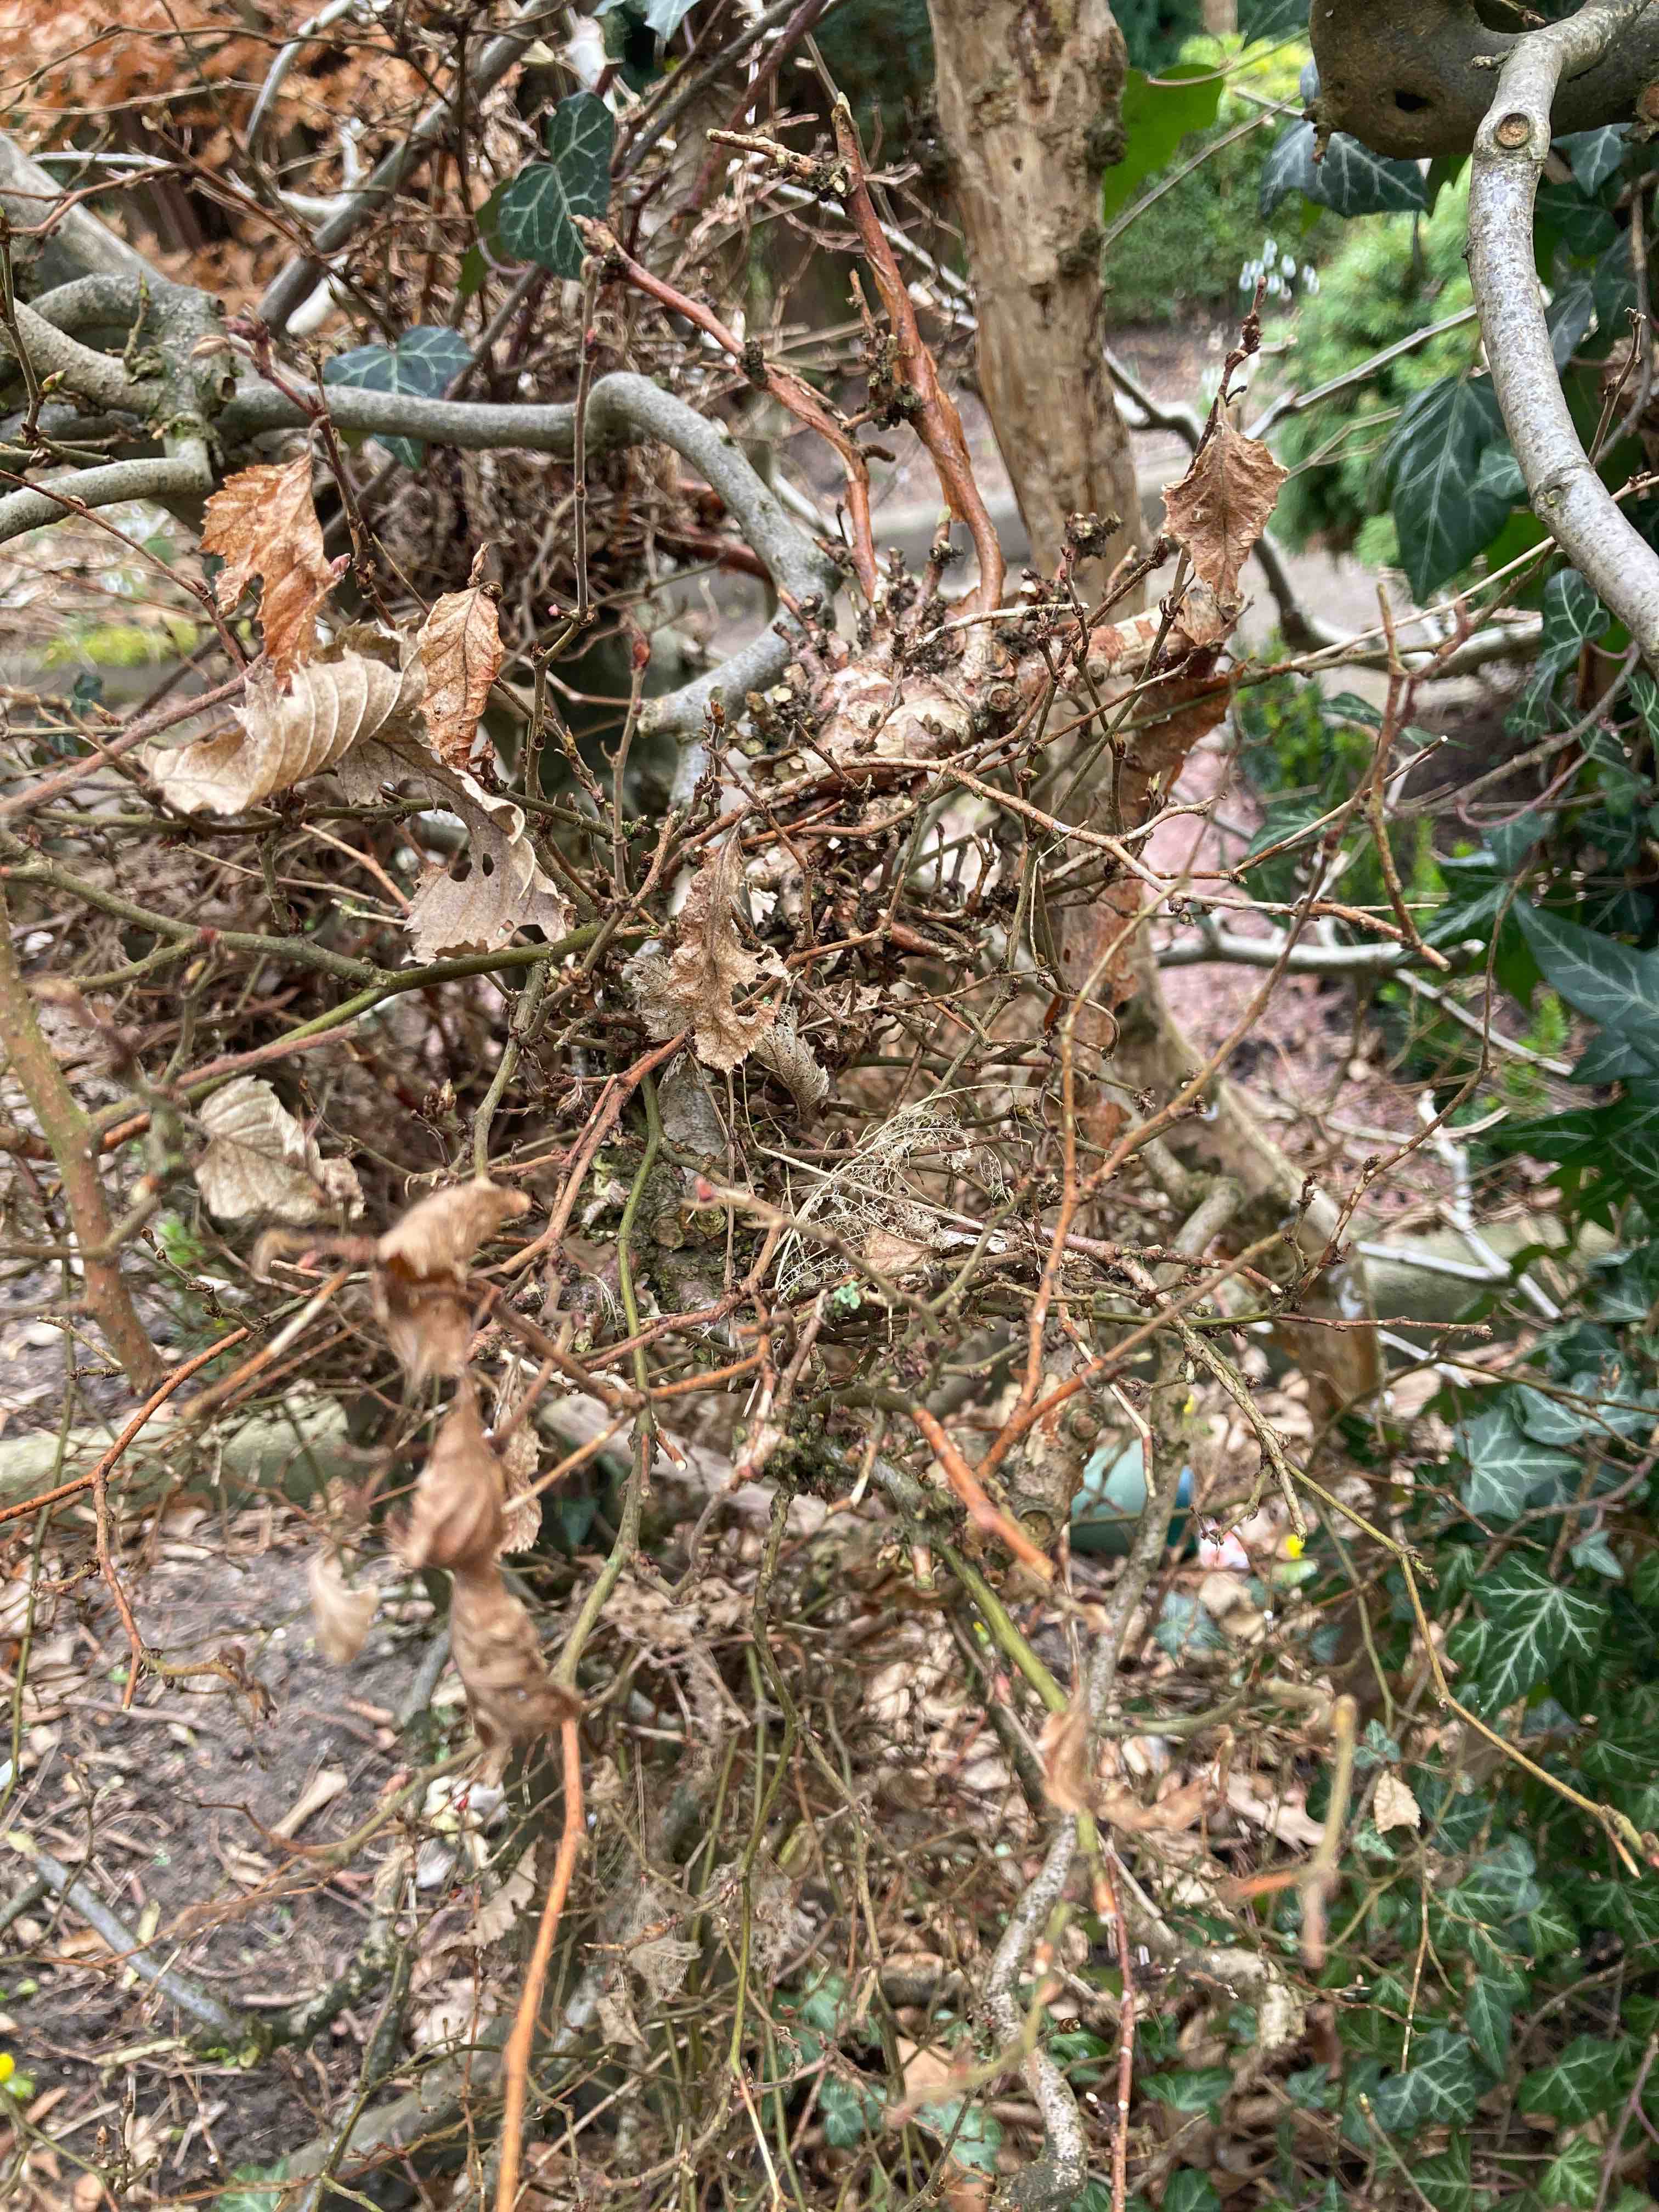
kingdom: Fungi
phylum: Ascomycota
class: Taphrinomycetes
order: Taphrinales
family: Taphrinaceae
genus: Taphrina
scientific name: Taphrina carpini
